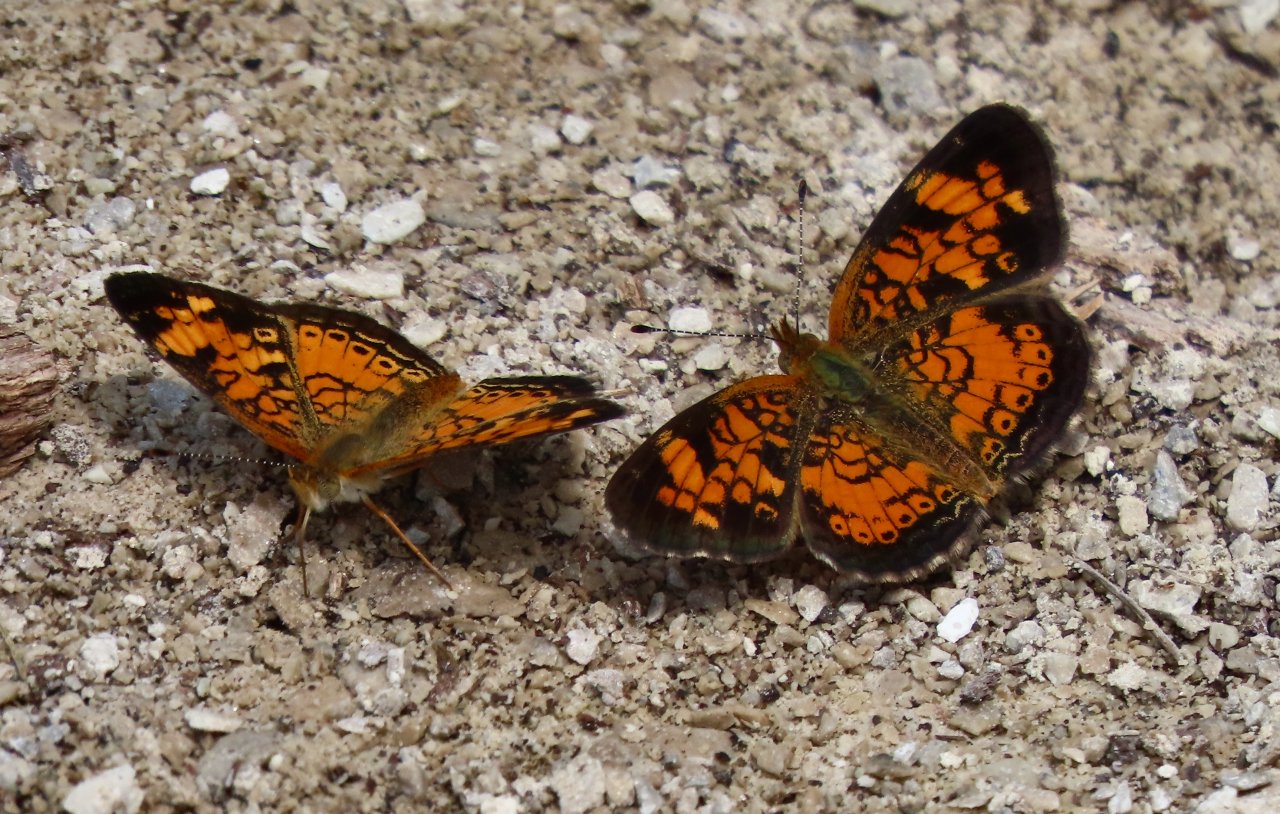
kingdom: Animalia
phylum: Arthropoda
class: Insecta
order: Lepidoptera
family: Nymphalidae
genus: Phyciodes
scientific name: Phyciodes tharos
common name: Pearl Crescent
